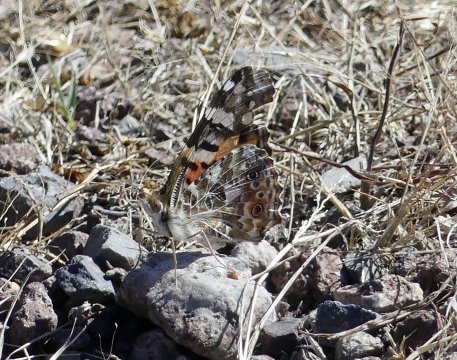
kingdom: Animalia
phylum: Arthropoda
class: Insecta
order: Lepidoptera
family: Nymphalidae
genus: Vanessa
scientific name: Vanessa cardui
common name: Painted Lady
